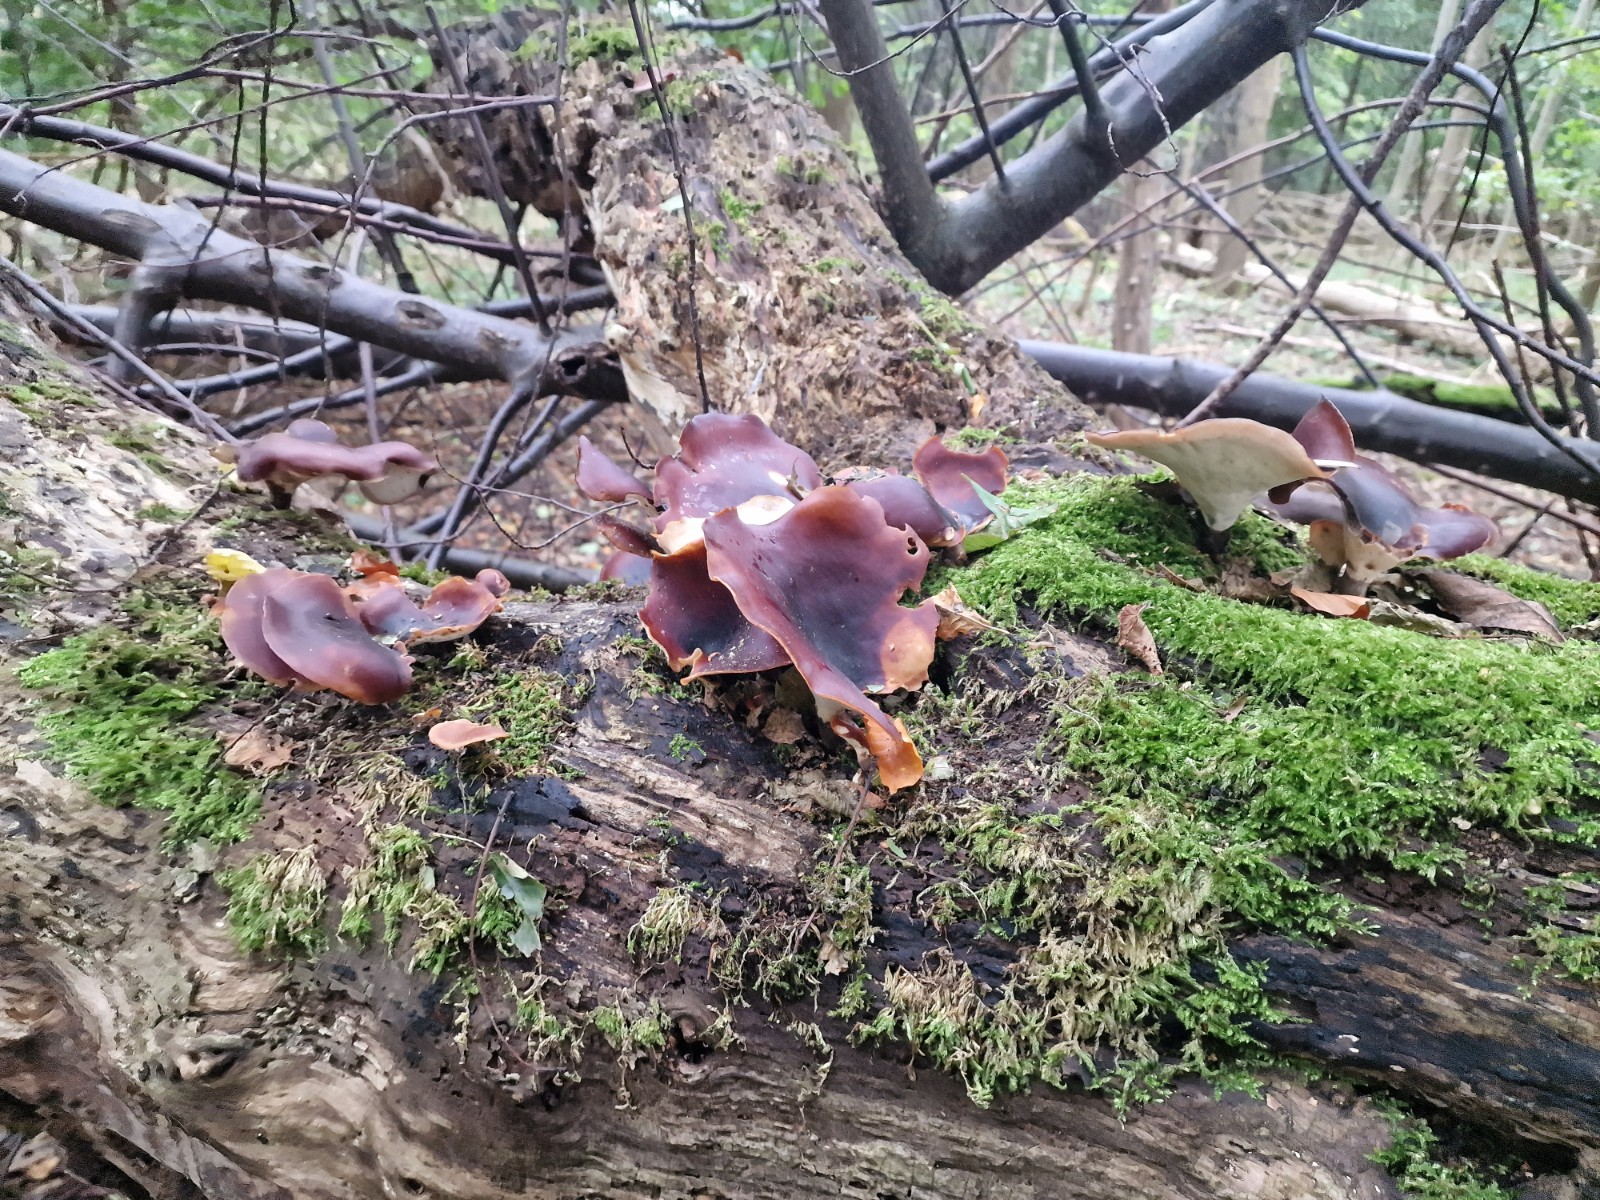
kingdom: Fungi
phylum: Basidiomycota
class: Agaricomycetes
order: Polyporales
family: Polyporaceae
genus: Picipes
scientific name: Picipes badius
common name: kastaniebrun stilkporesvamp
